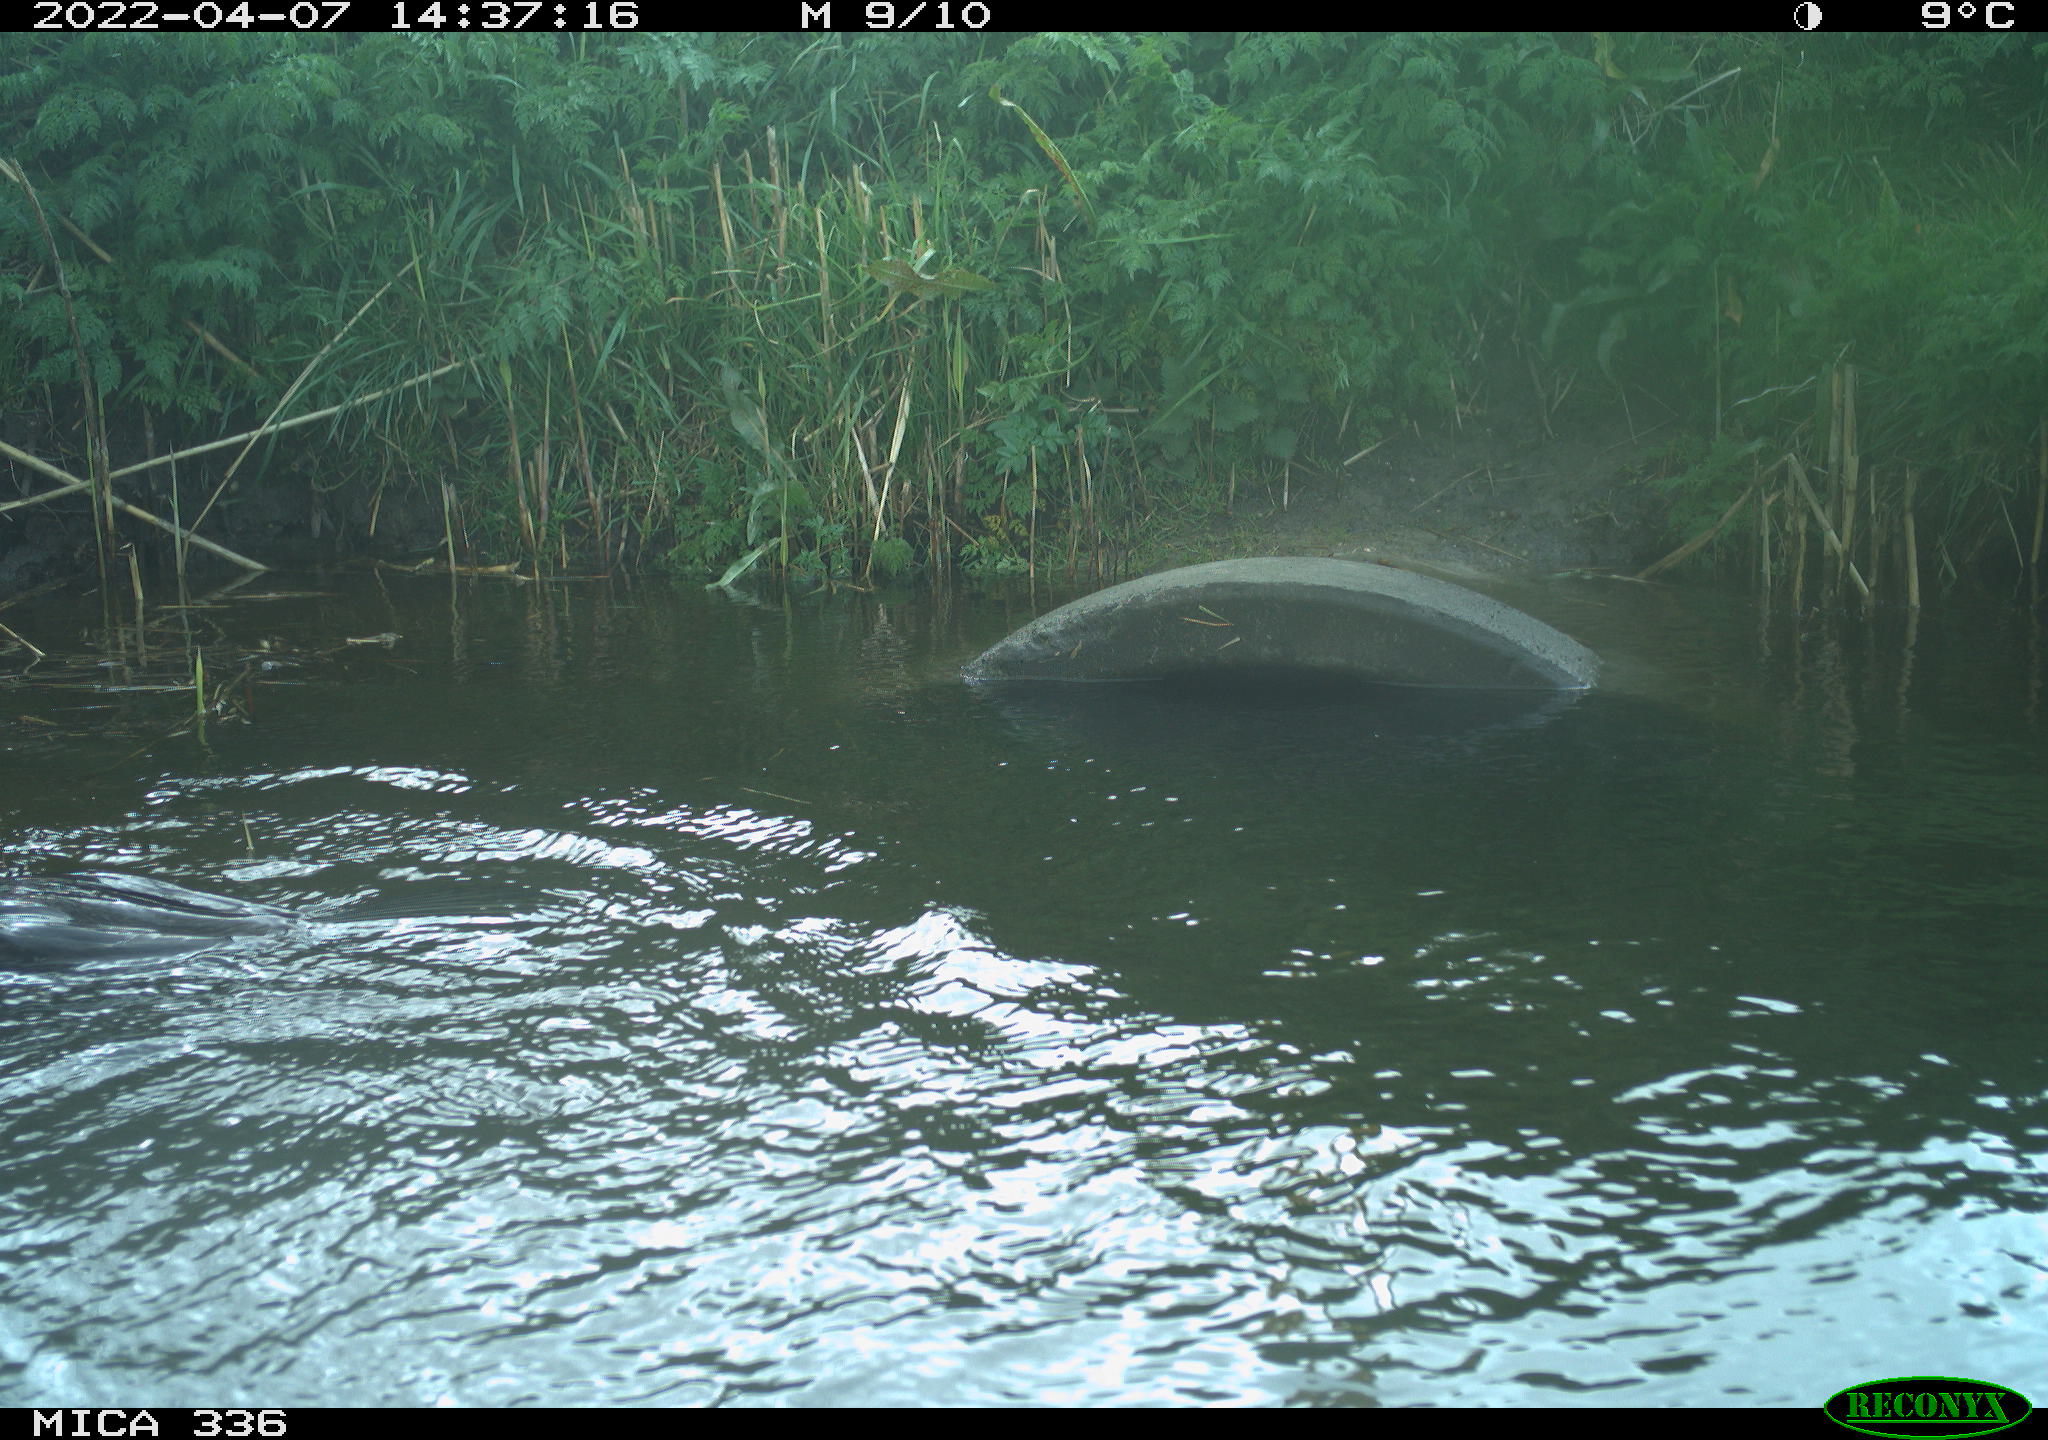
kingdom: Animalia
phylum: Chordata
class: Aves
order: Suliformes
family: Phalacrocoracidae
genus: Phalacrocorax
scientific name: Phalacrocorax carbo
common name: Great cormorant
